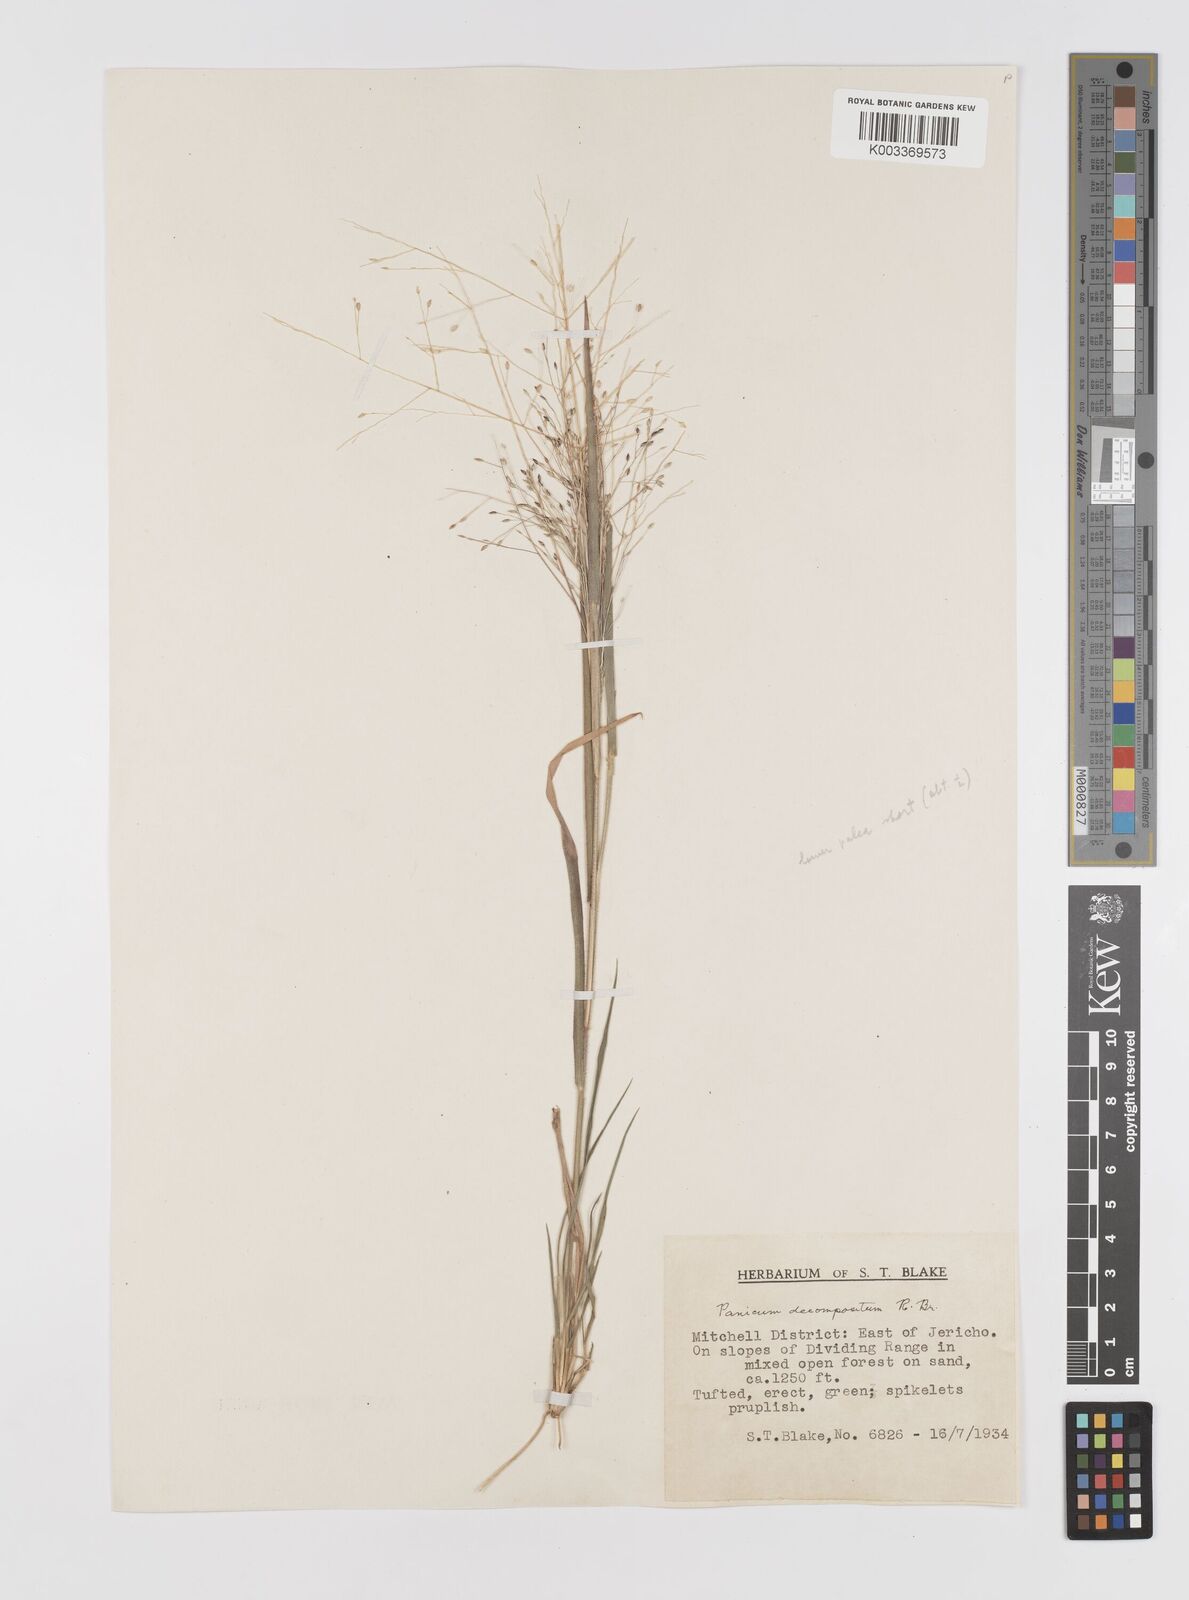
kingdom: Plantae
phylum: Tracheophyta
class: Liliopsida
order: Poales
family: Poaceae
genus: Panicum
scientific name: Panicum decompositum
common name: Australian millet
